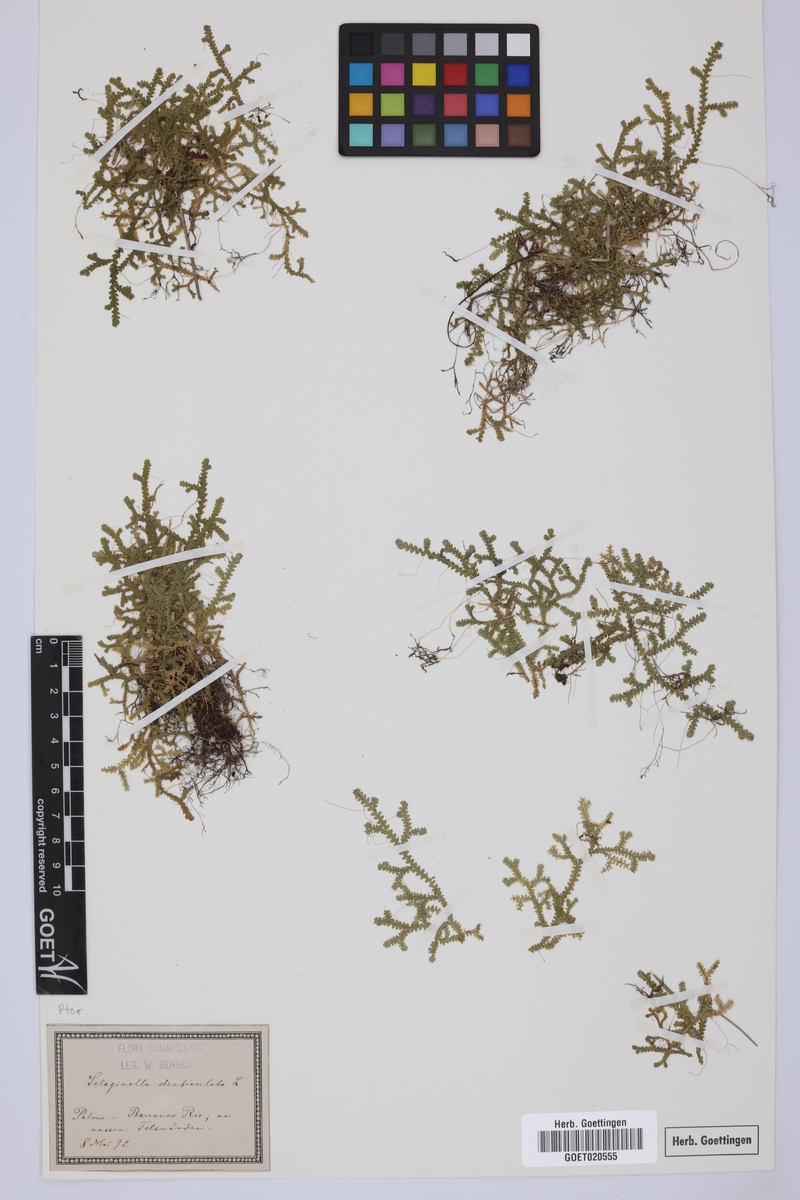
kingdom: Plantae
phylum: Tracheophyta
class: Lycopodiopsida
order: Selaginellales
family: Selaginellaceae
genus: Selaginella
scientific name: Selaginella denticulata
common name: Toothed-leaved clubmoss
